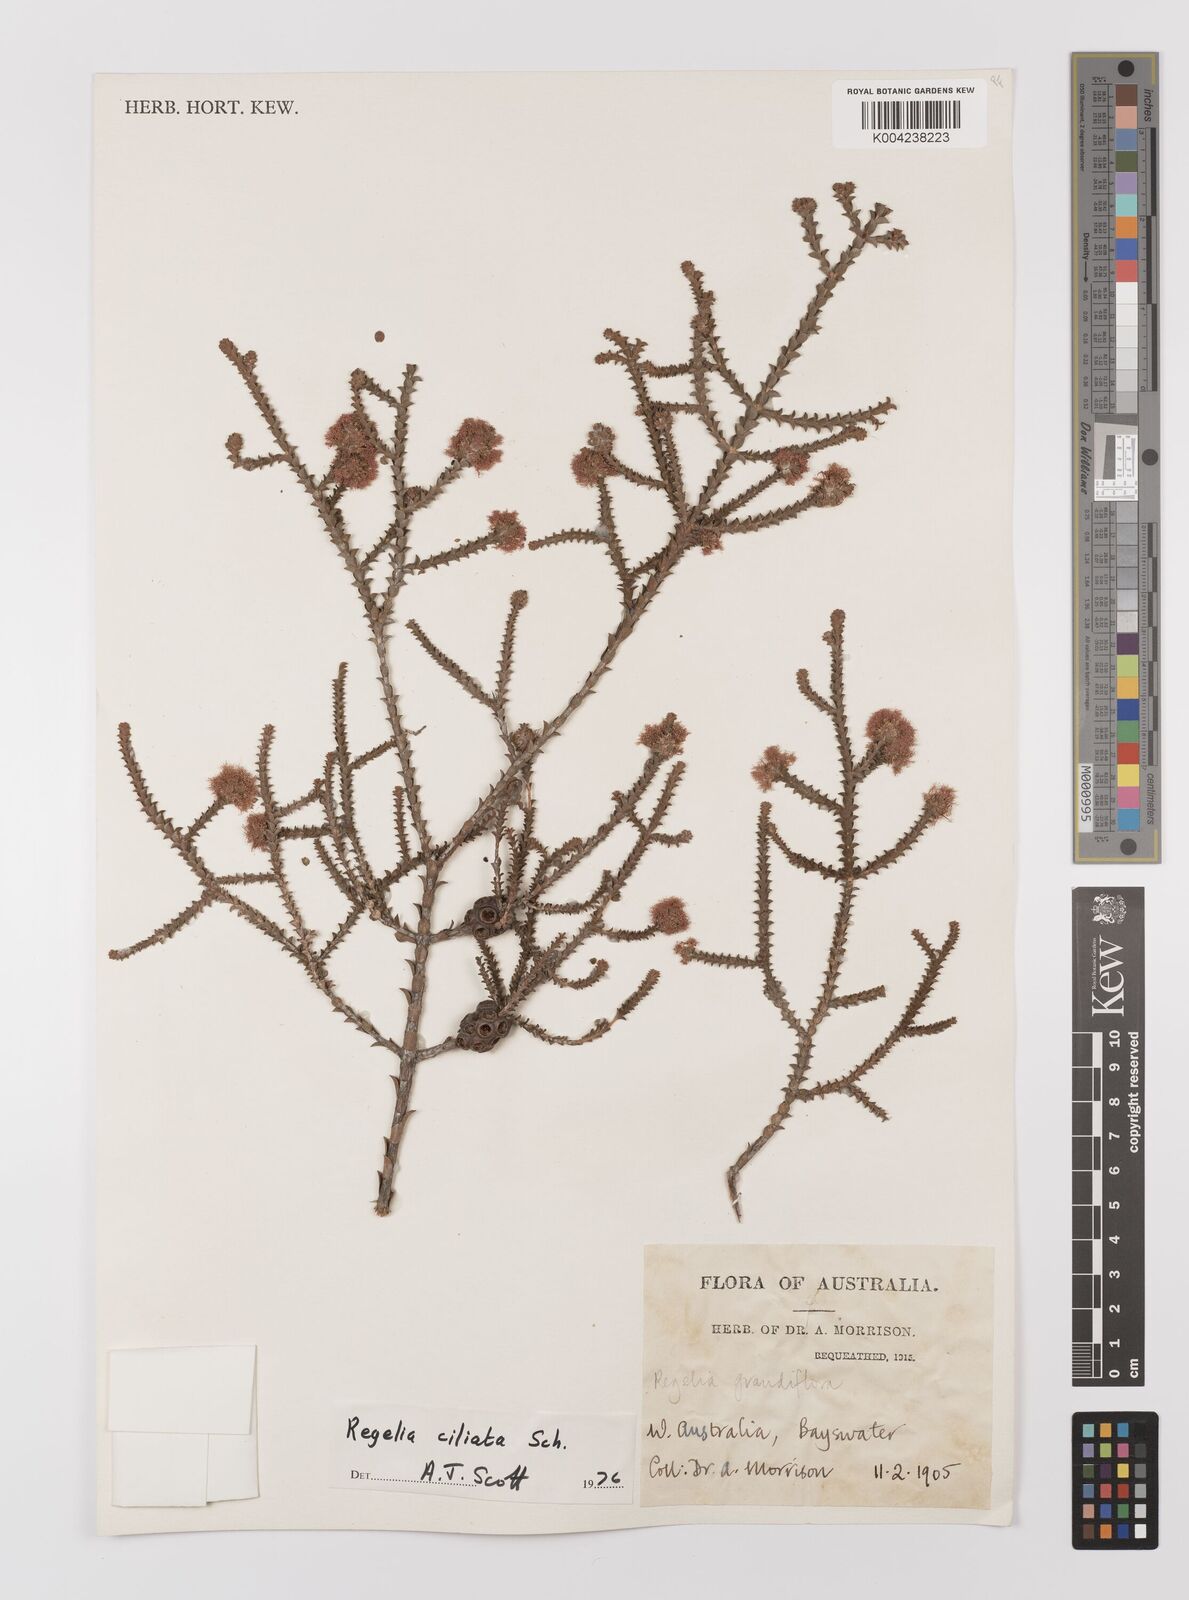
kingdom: Plantae
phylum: Tracheophyta
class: Magnoliopsida
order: Myrtales
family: Myrtaceae
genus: Melaleuca
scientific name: Melaleuca crossota
